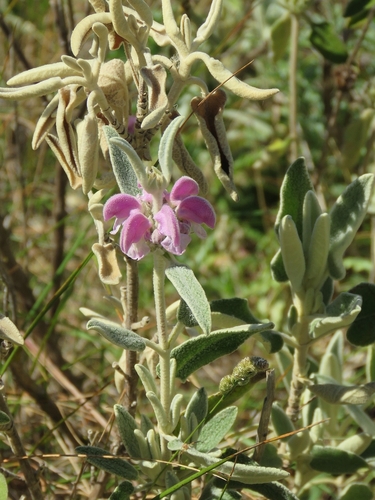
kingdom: Plantae
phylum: Tracheophyta
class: Magnoliopsida
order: Lamiales
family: Lamiaceae
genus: Phlomis
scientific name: Phlomis purpurea
